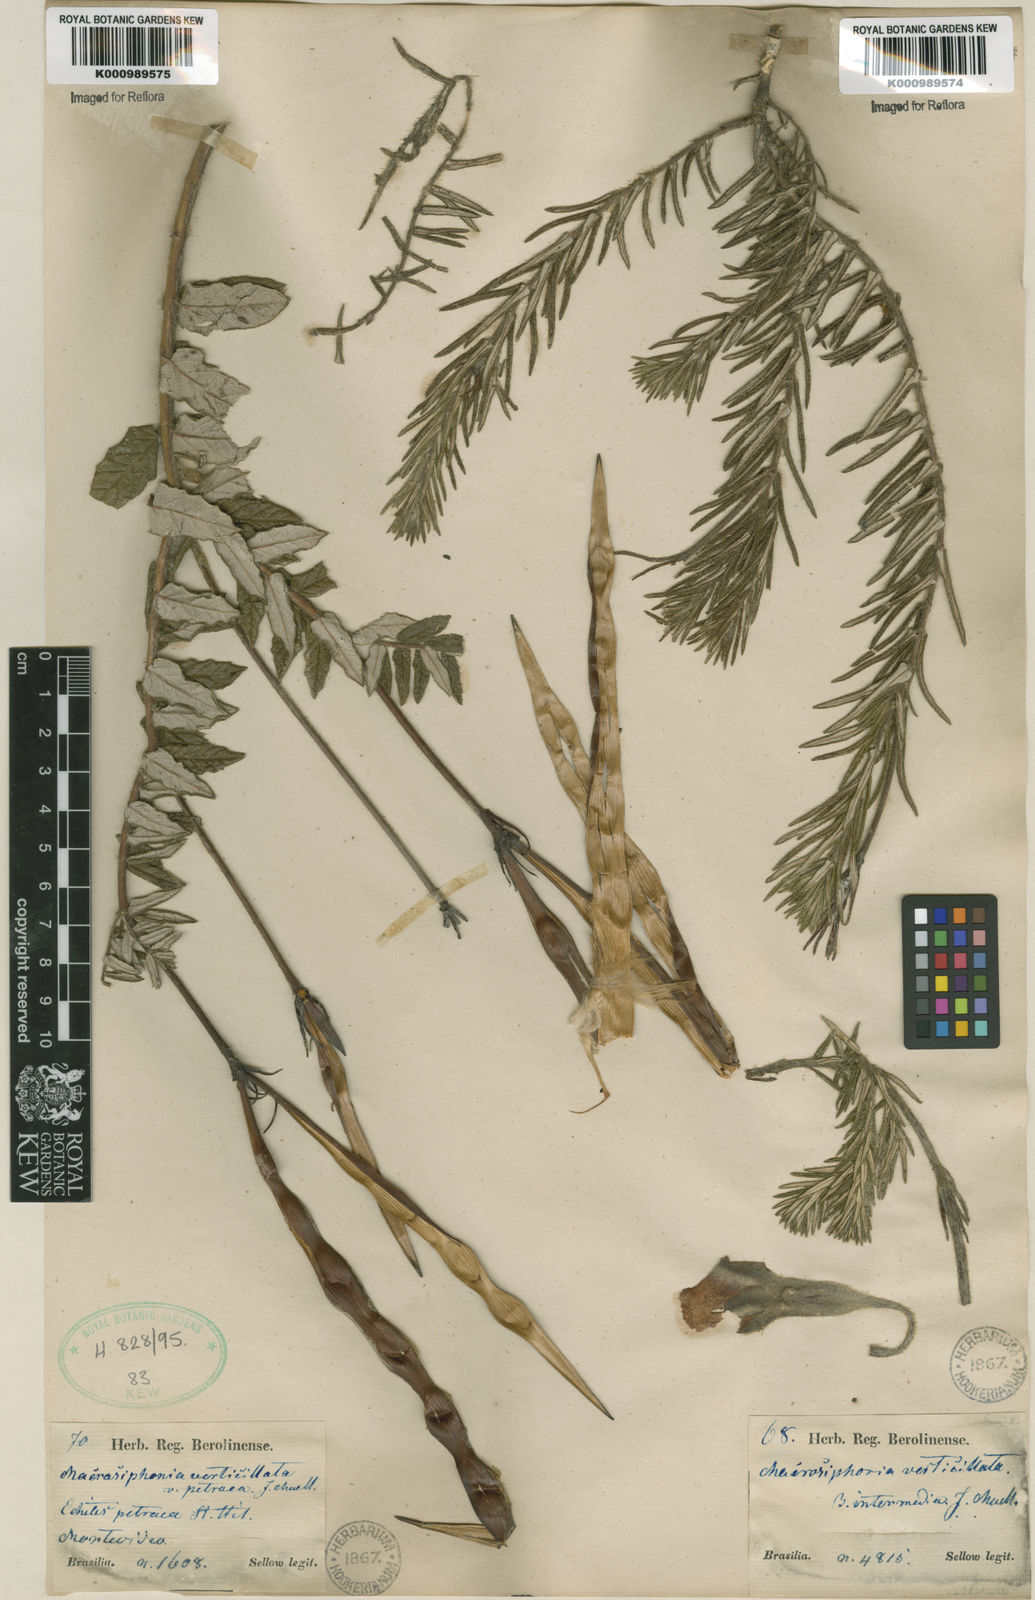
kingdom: Plantae
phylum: Tracheophyta
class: Magnoliopsida
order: Gentianales
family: Apocynaceae
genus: Mandevilla
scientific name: Mandevilla petraea
